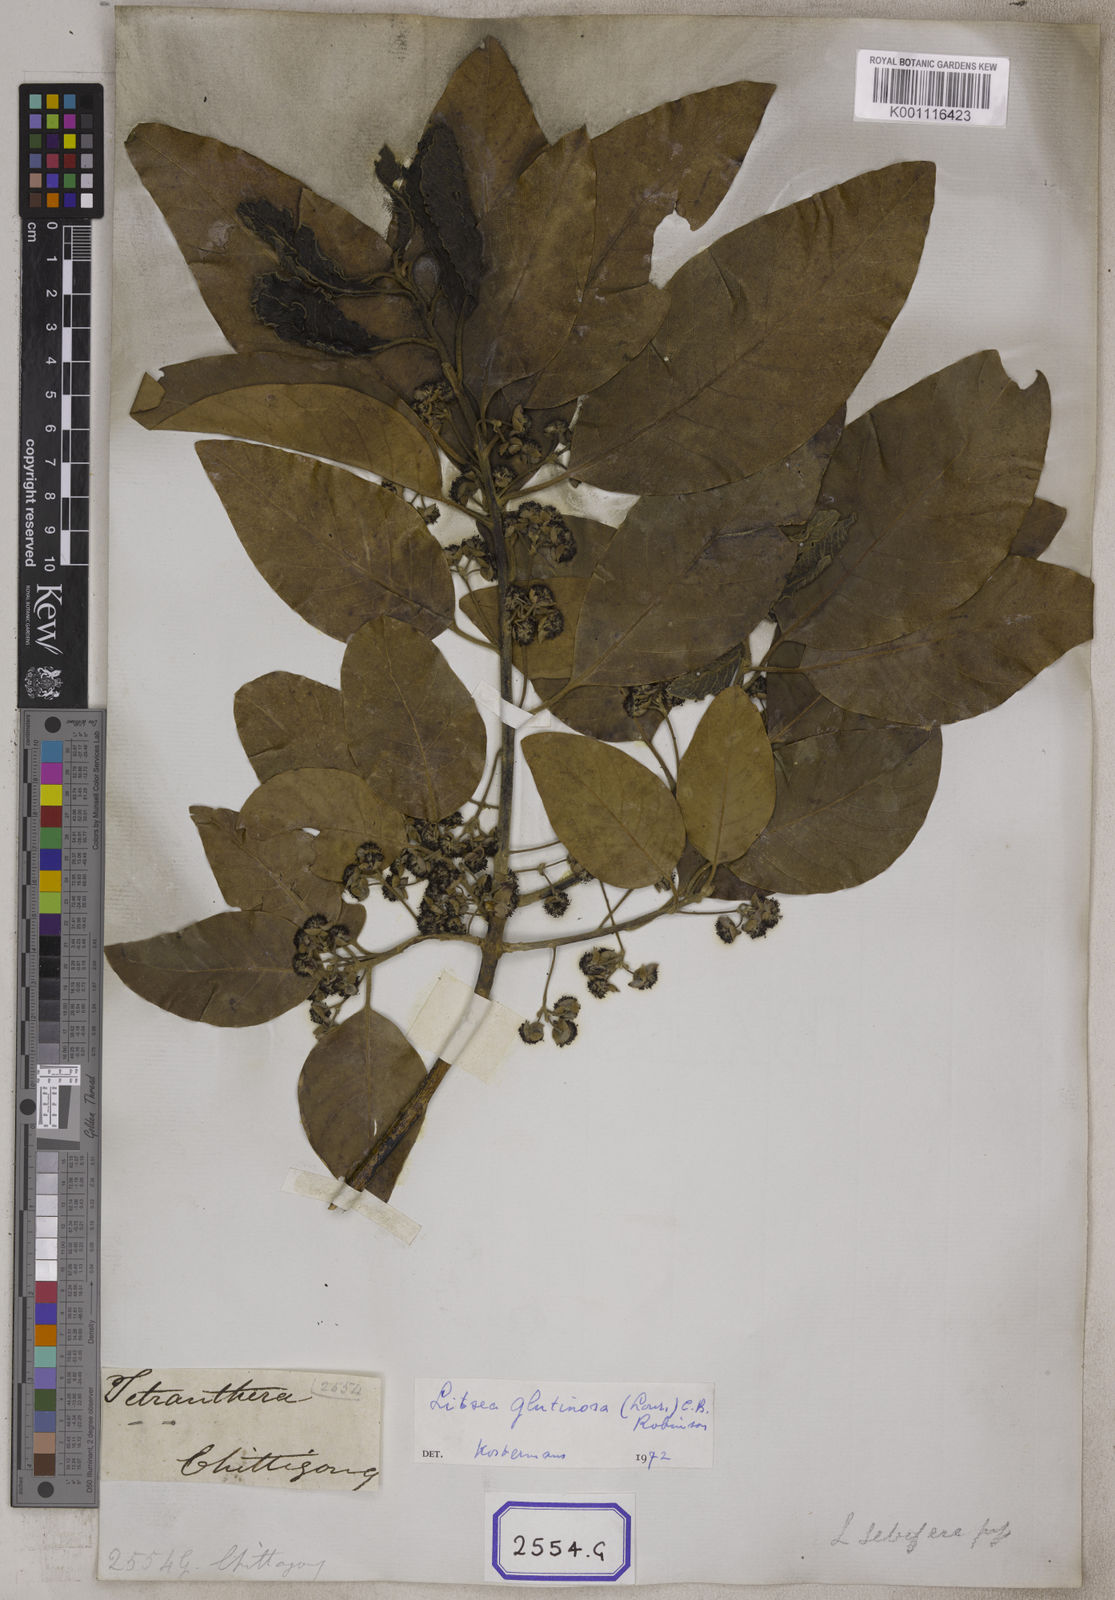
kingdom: Plantae
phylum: Tracheophyta
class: Magnoliopsida
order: Laurales
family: Lauraceae
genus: Litsea
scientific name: Litsea glutinosa
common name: Indian-laurel
